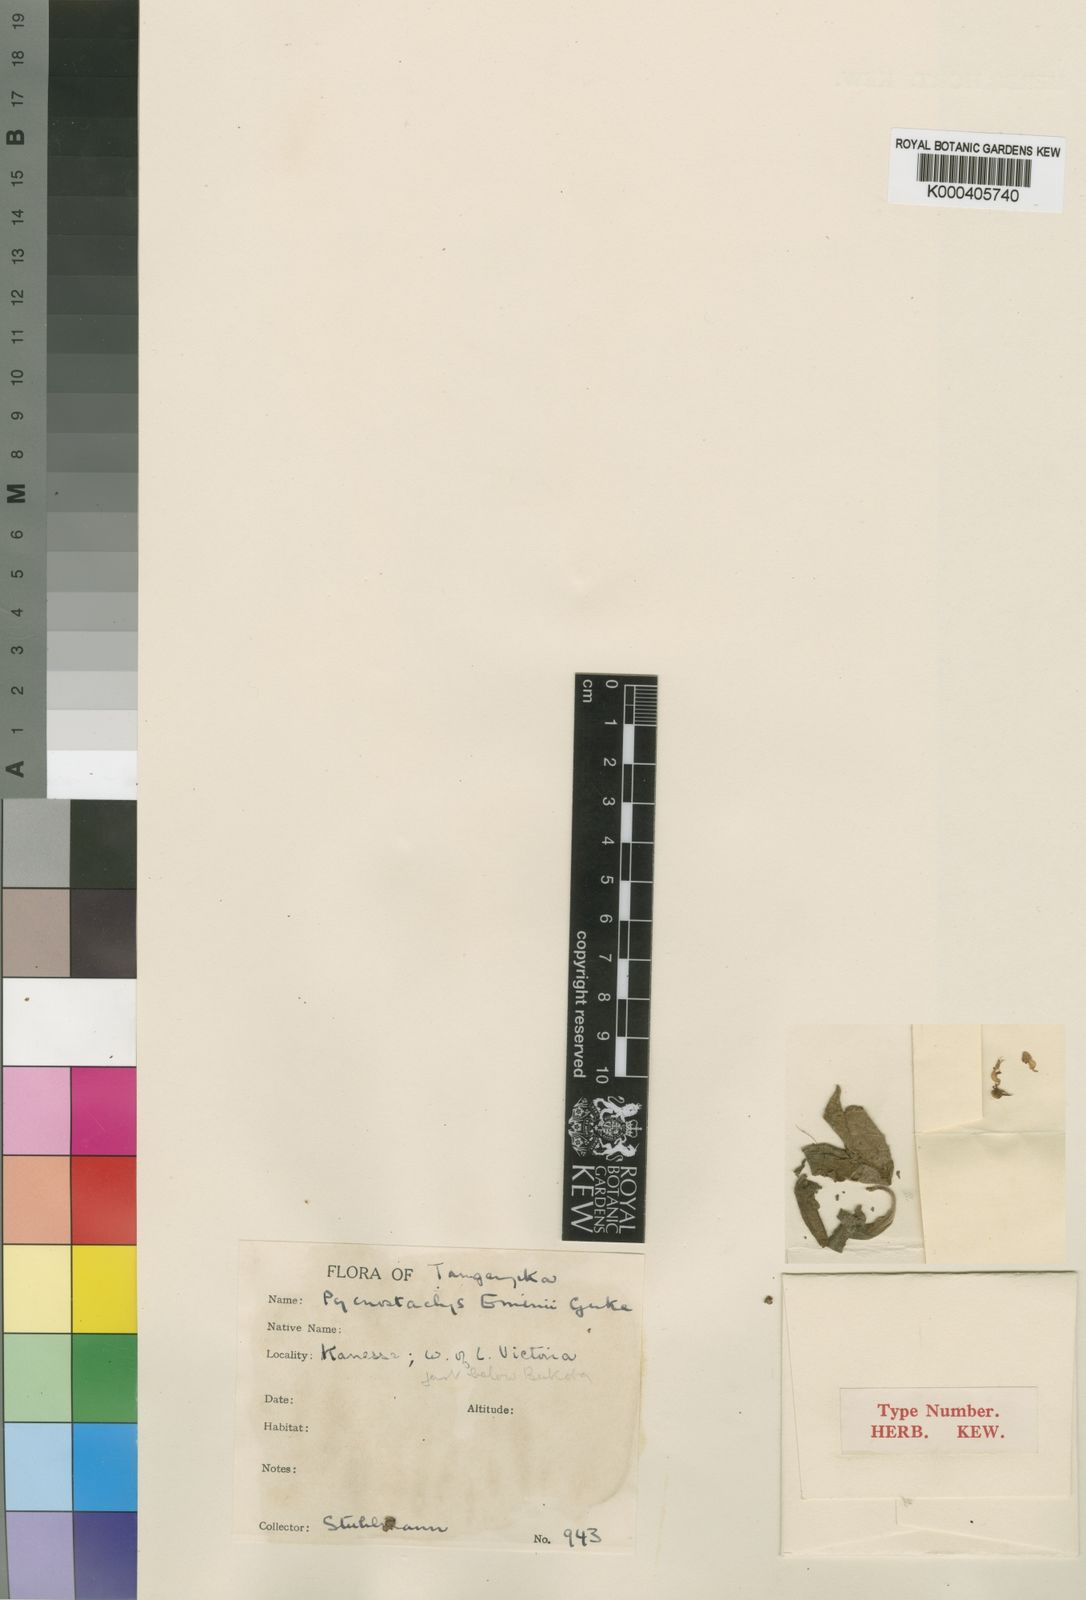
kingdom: Plantae
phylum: Tracheophyta
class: Magnoliopsida
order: Lamiales
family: Lamiaceae
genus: Coleus
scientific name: Coleus
